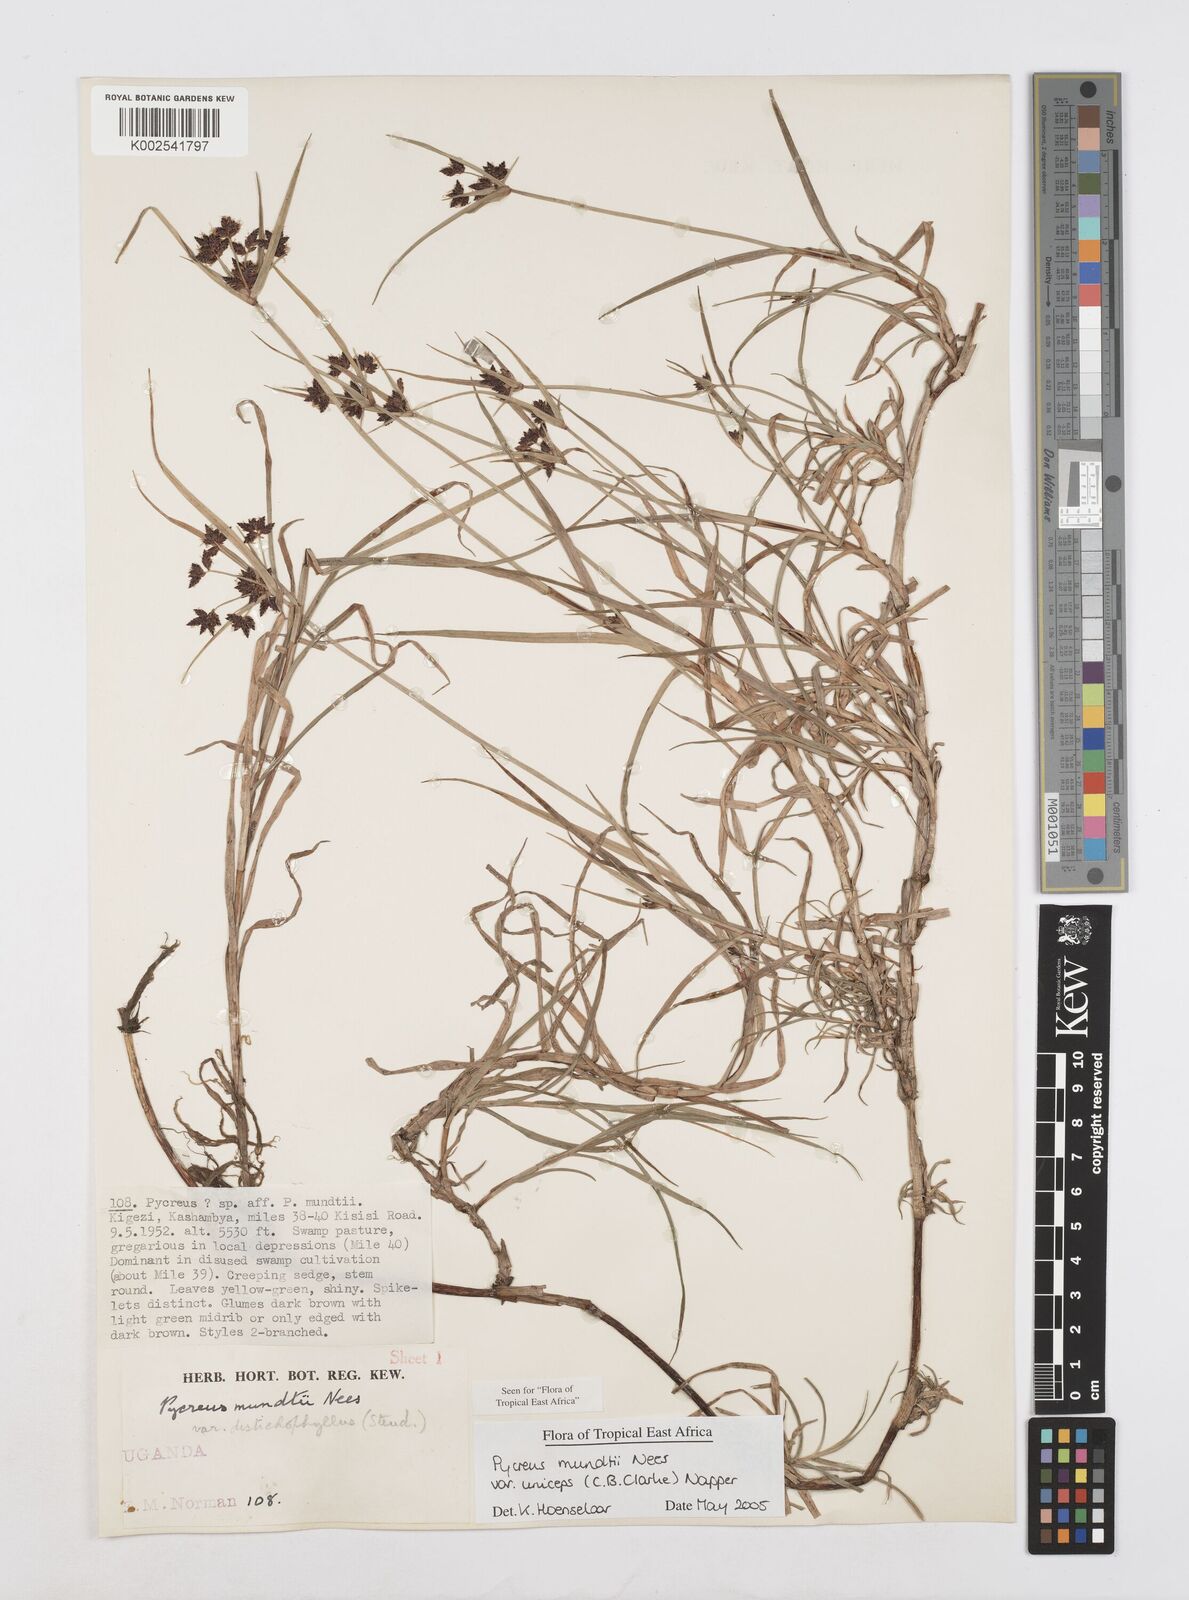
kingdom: Plantae
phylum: Tracheophyta
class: Liliopsida
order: Poales
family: Cyperaceae
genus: Cyperus
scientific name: Cyperus mundii
